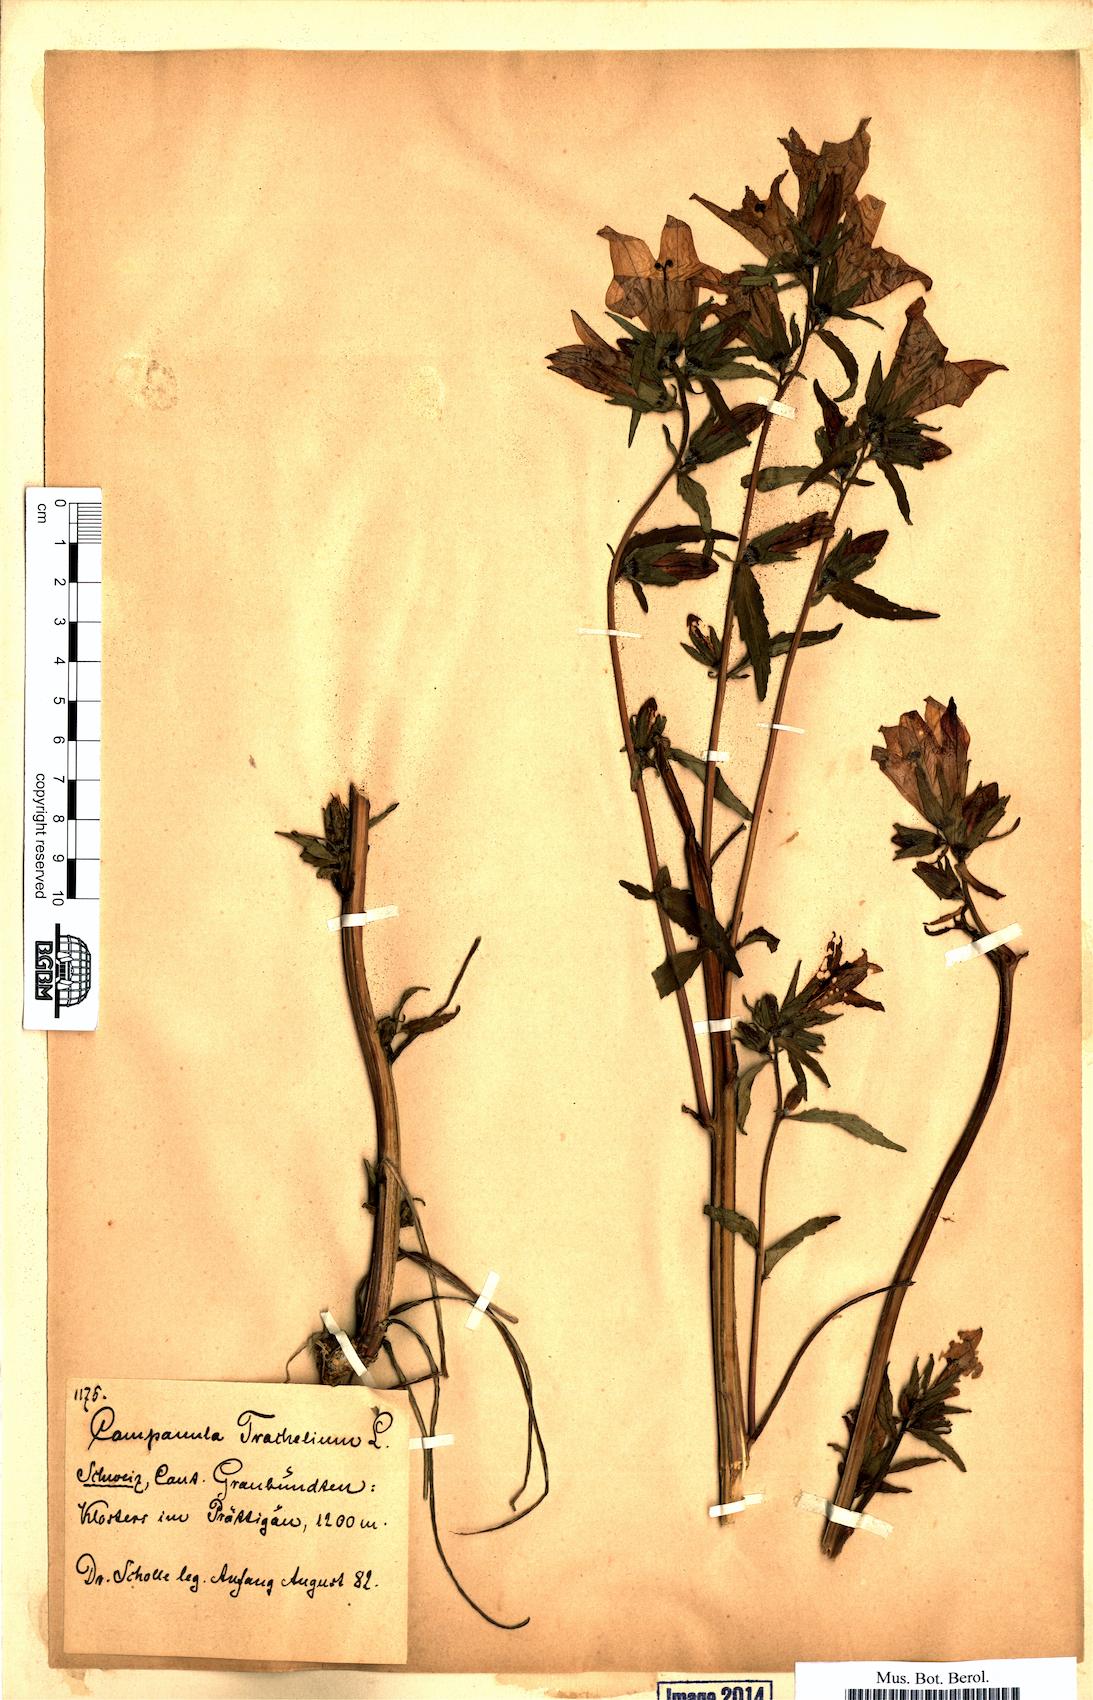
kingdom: Plantae
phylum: Tracheophyta
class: Magnoliopsida
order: Asterales
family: Campanulaceae
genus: Campanula
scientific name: Campanula trachelium
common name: Nettle-leaved bellflower
